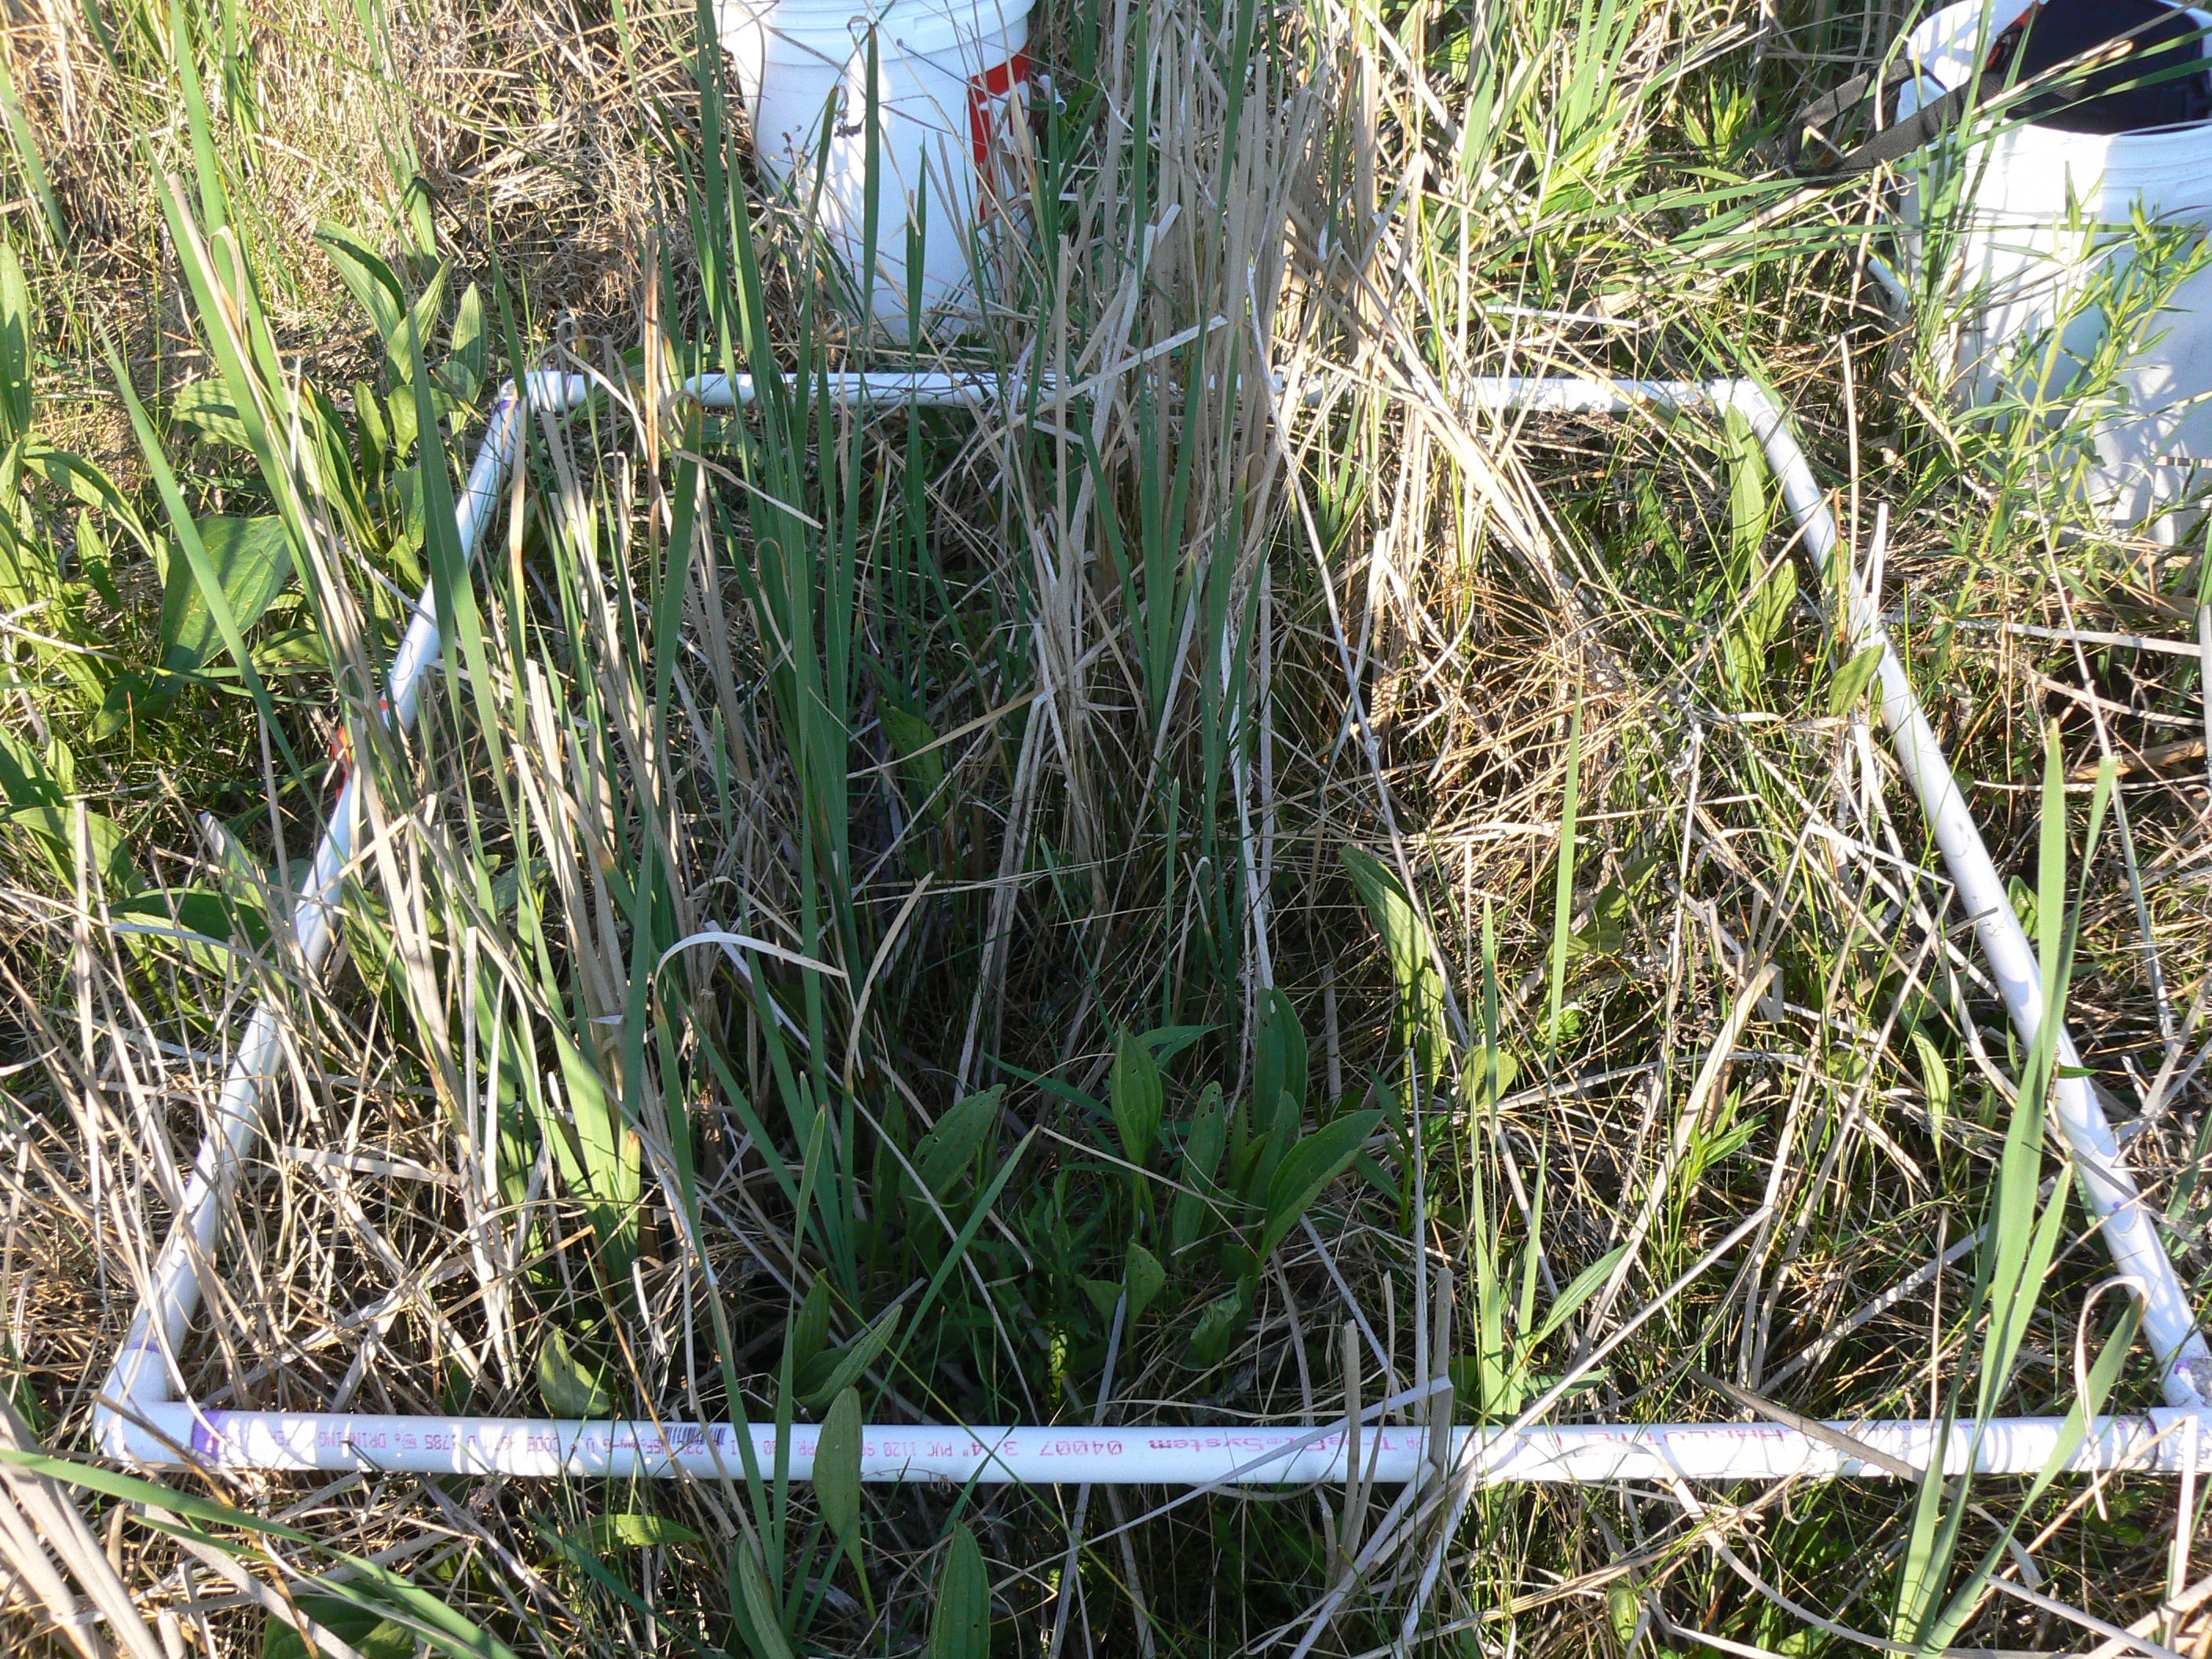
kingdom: Plantae
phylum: Tracheophyta
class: Magnoliopsida
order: Asterales
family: Asteraceae
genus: Eupatorium
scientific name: Eupatorium perfoliatum
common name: Boneset
